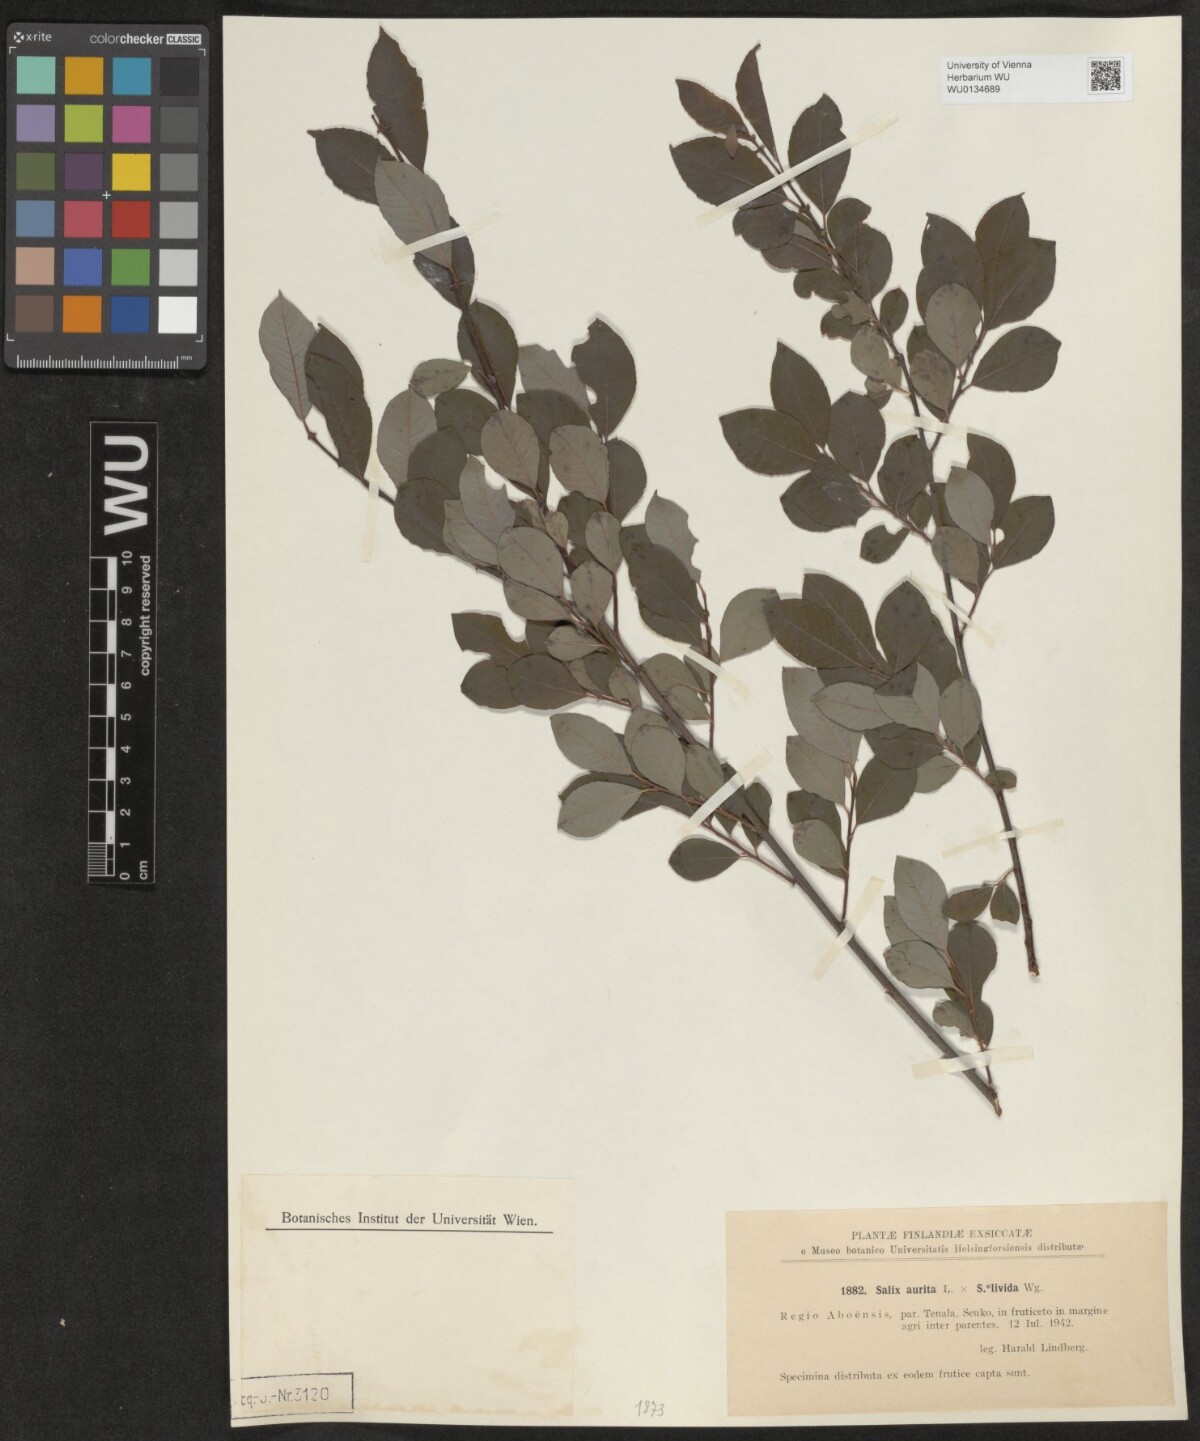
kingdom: Plantae
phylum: Tracheophyta
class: Magnoliopsida
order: Malpighiales
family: Salicaceae
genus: Salix
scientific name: Salix
